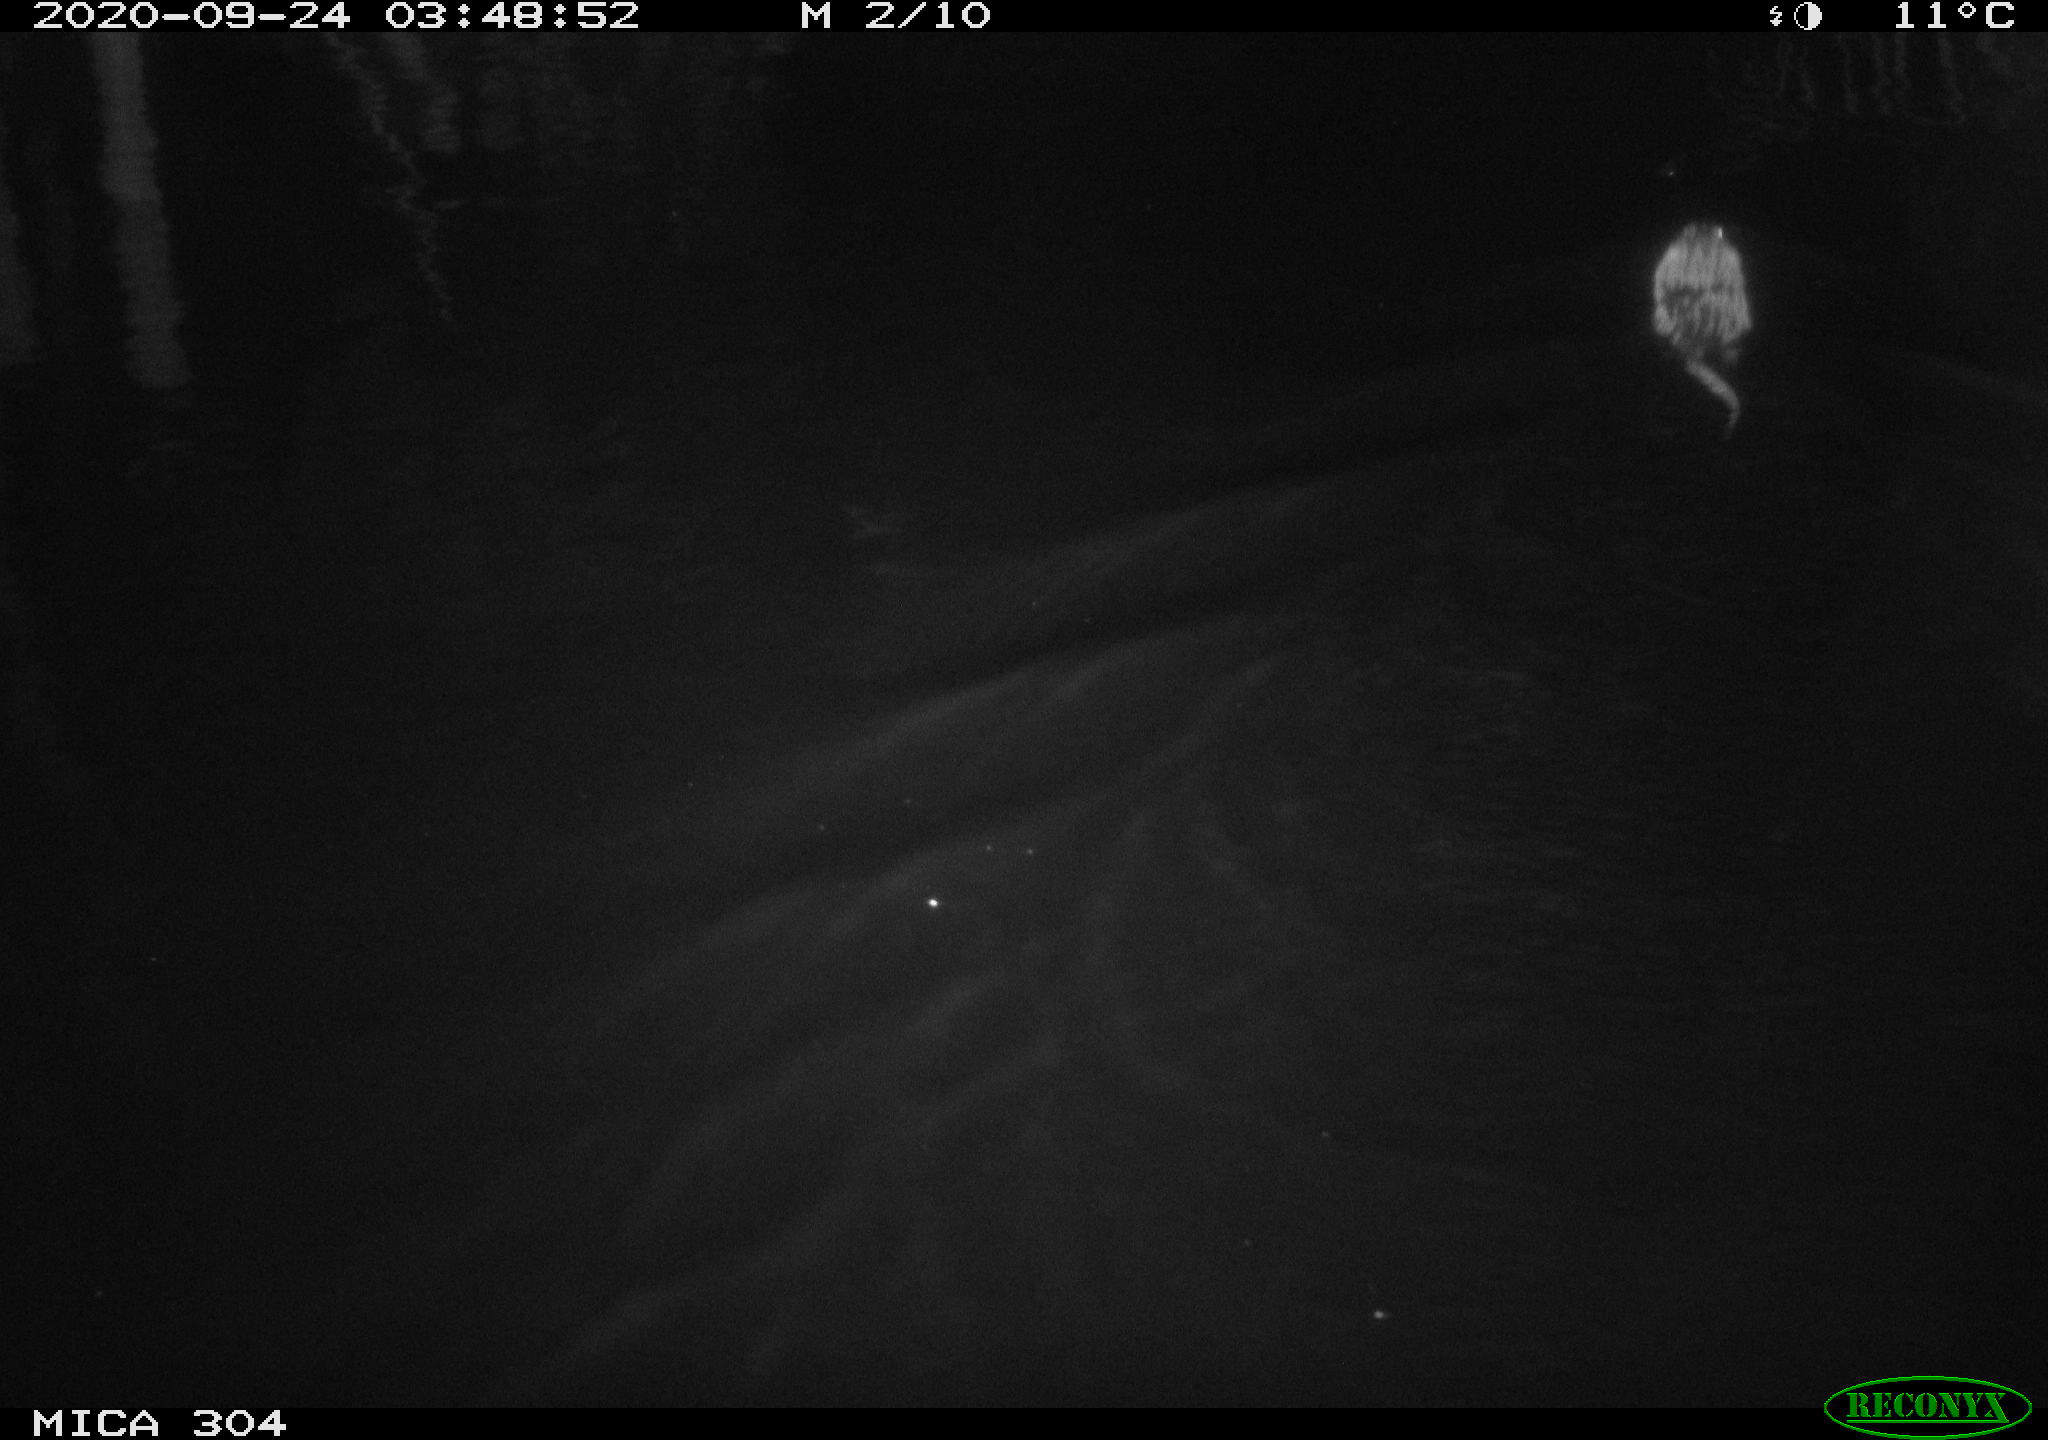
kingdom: Animalia
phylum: Chordata
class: Mammalia
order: Rodentia
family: Cricetidae
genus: Ondatra
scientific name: Ondatra zibethicus
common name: Muskrat
